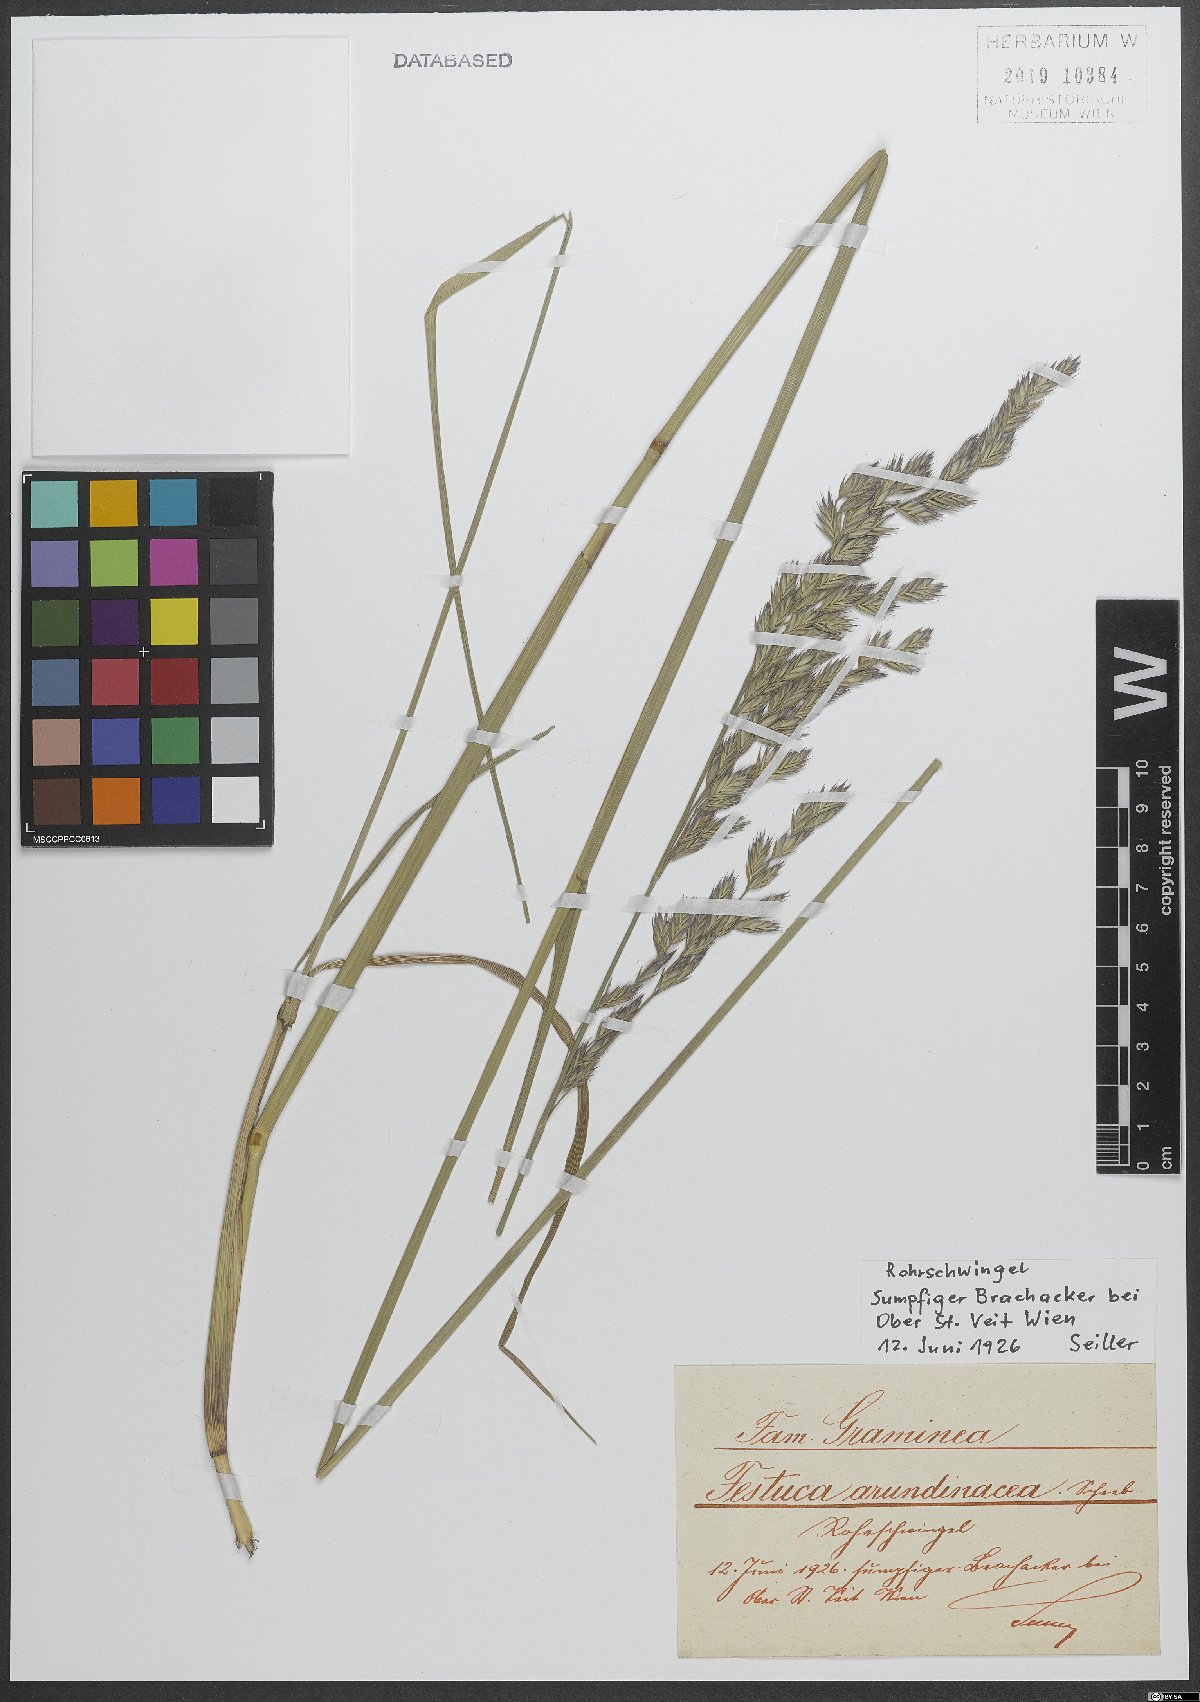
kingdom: Plantae
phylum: Tracheophyta
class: Liliopsida
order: Poales
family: Poaceae
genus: Lolium
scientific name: Lolium arundinaceum
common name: Reed fescue
